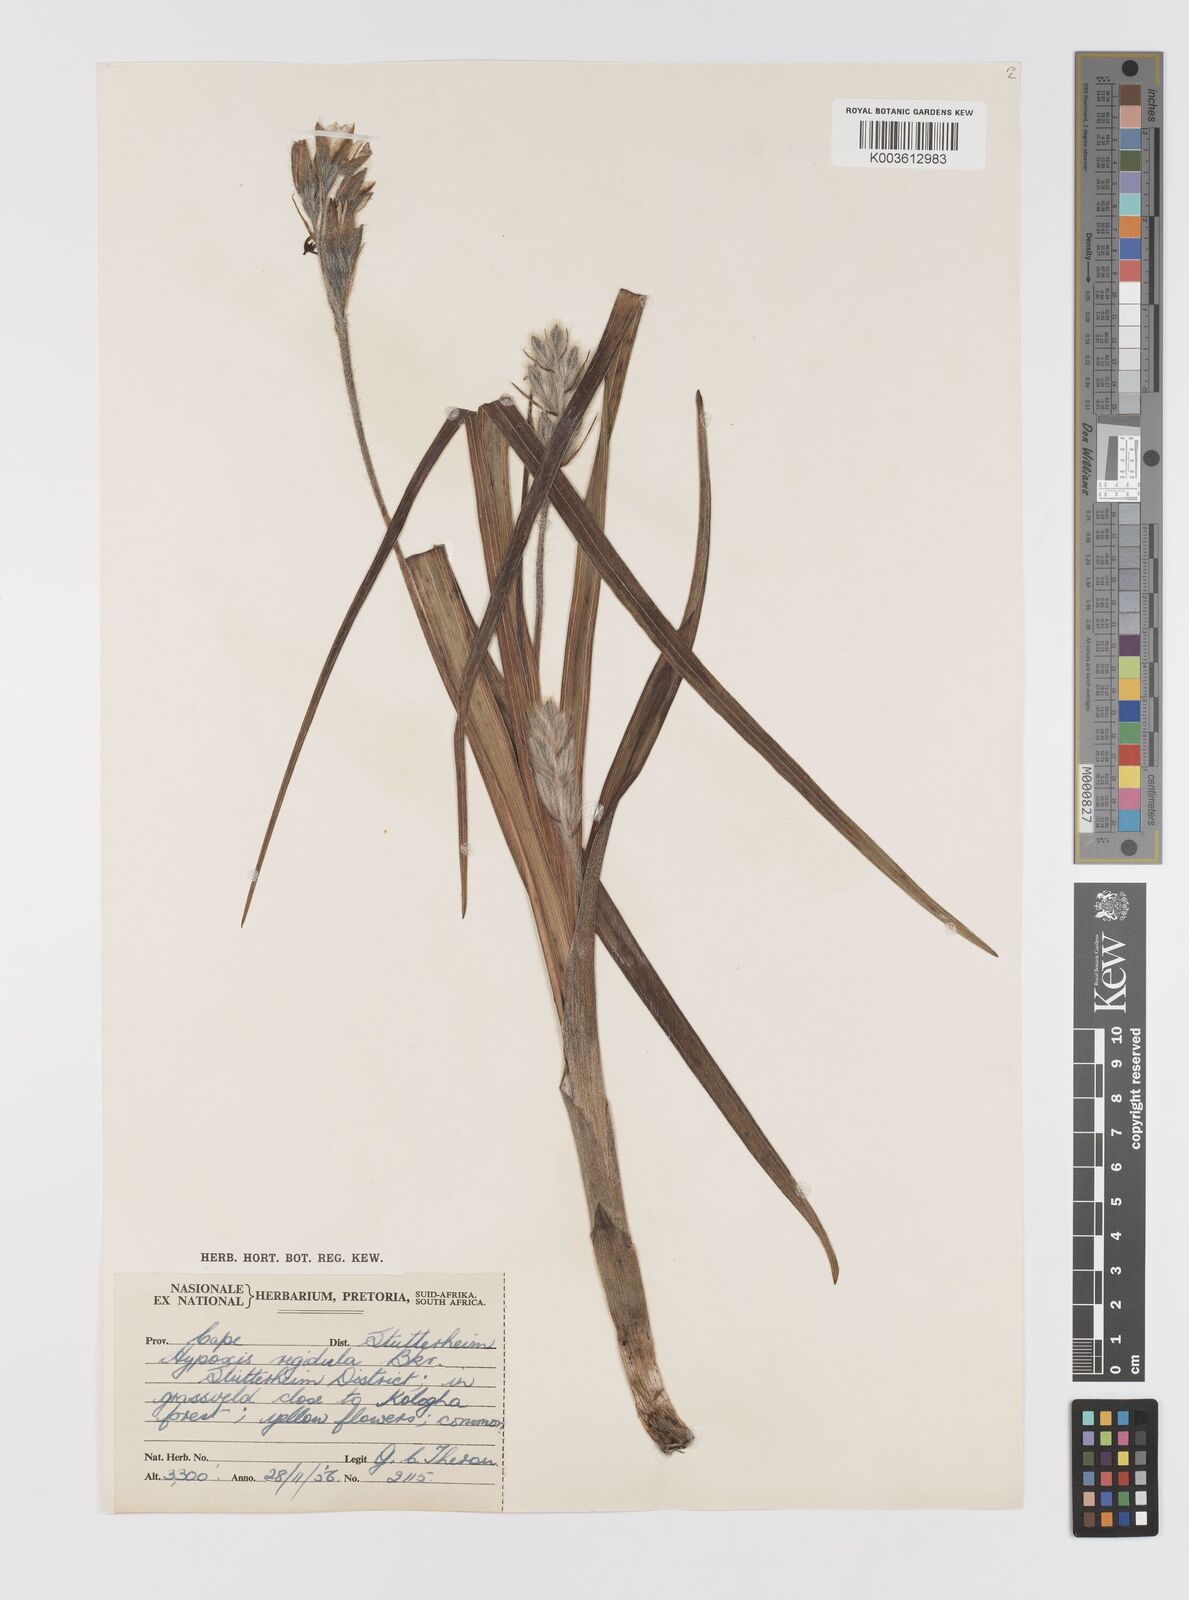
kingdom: Plantae
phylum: Tracheophyta
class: Liliopsida
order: Asparagales
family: Hypoxidaceae
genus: Hypoxis
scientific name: Hypoxis rigidula
